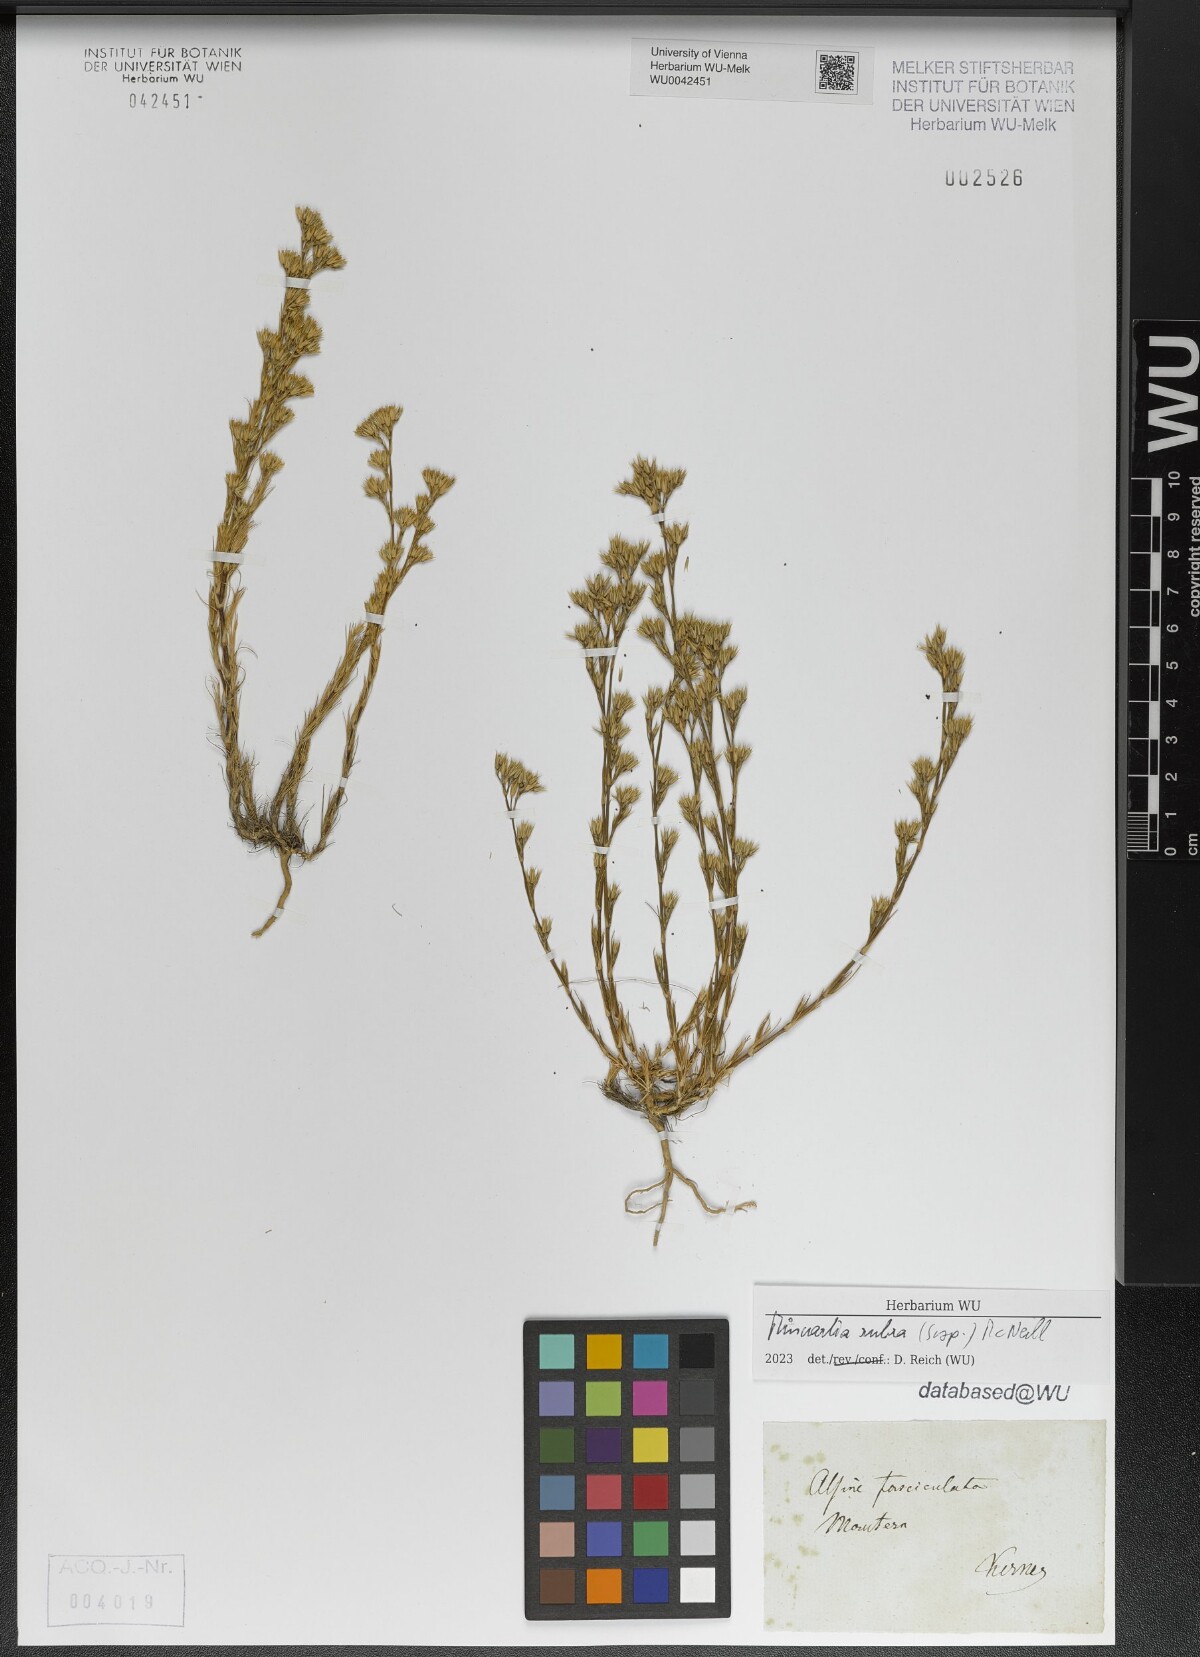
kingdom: Plantae
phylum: Tracheophyta
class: Magnoliopsida
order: Caryophyllales
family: Caryophyllaceae
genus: Minuartia
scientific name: Minuartia mucronata
